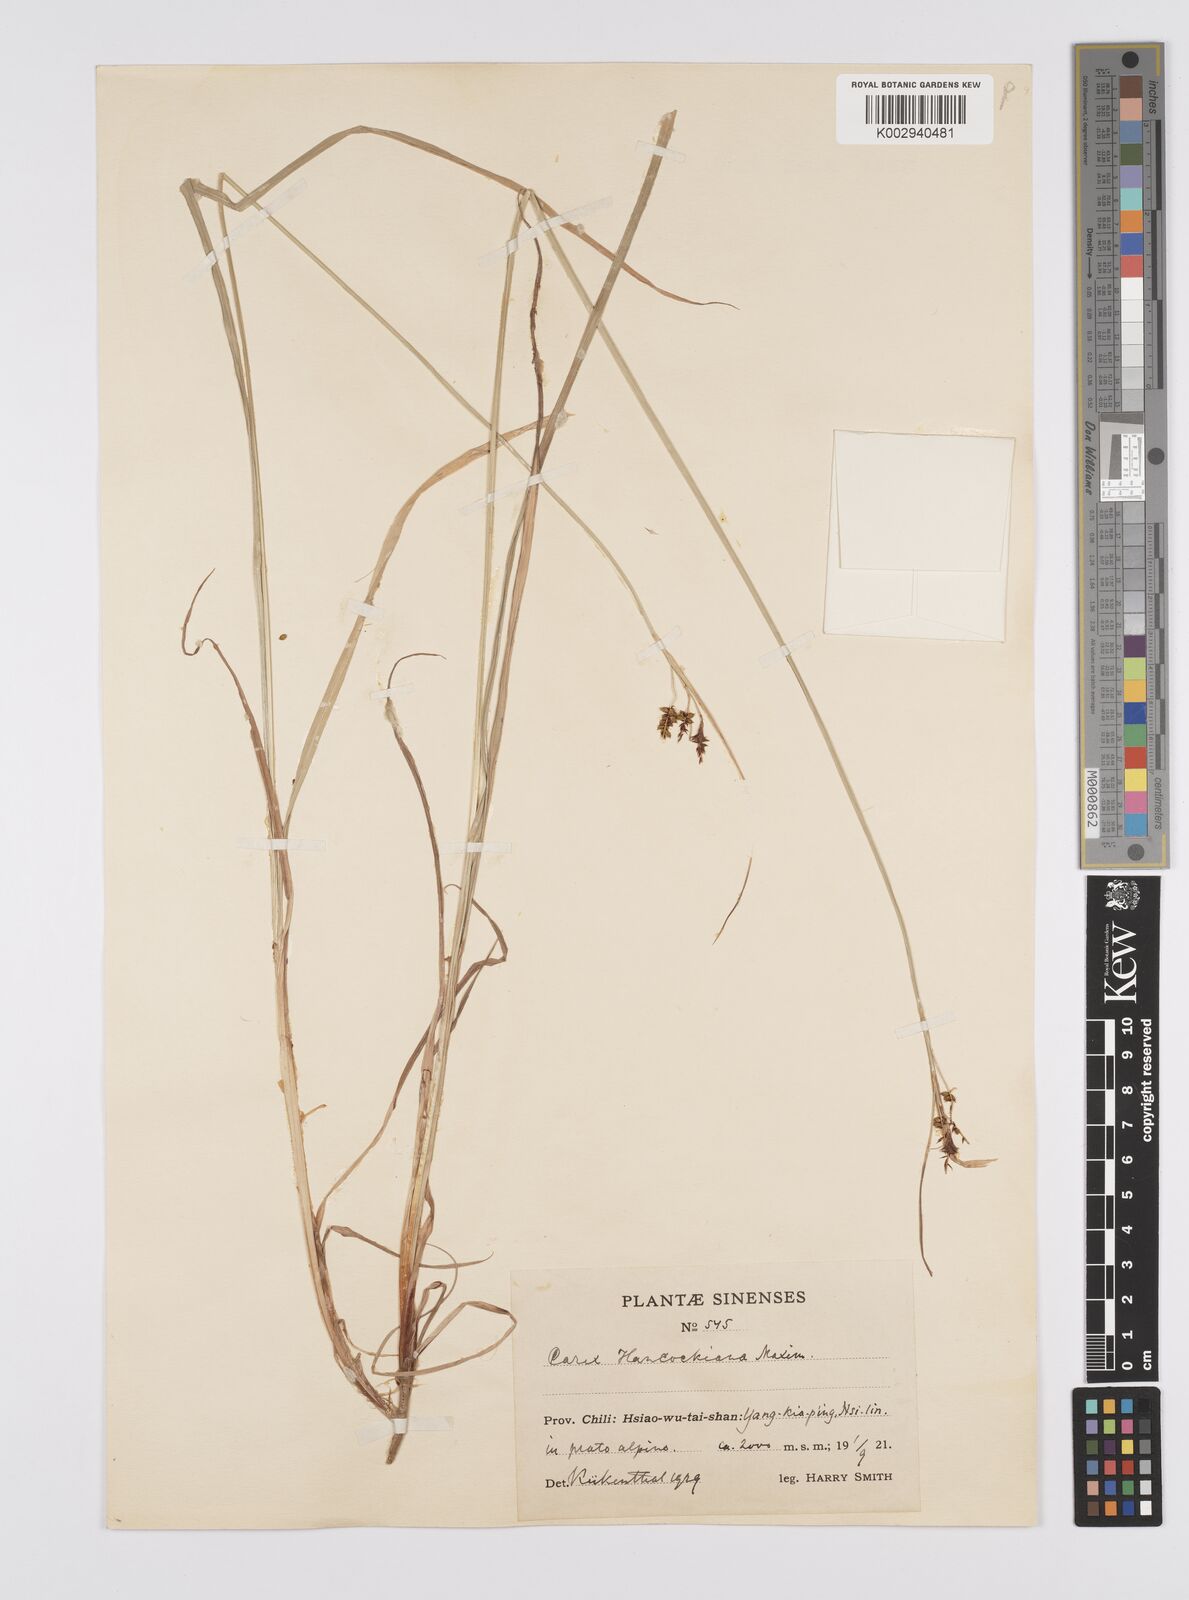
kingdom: Plantae
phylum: Tracheophyta
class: Liliopsida
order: Poales
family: Cyperaceae
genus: Carex
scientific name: Carex hancockiana
